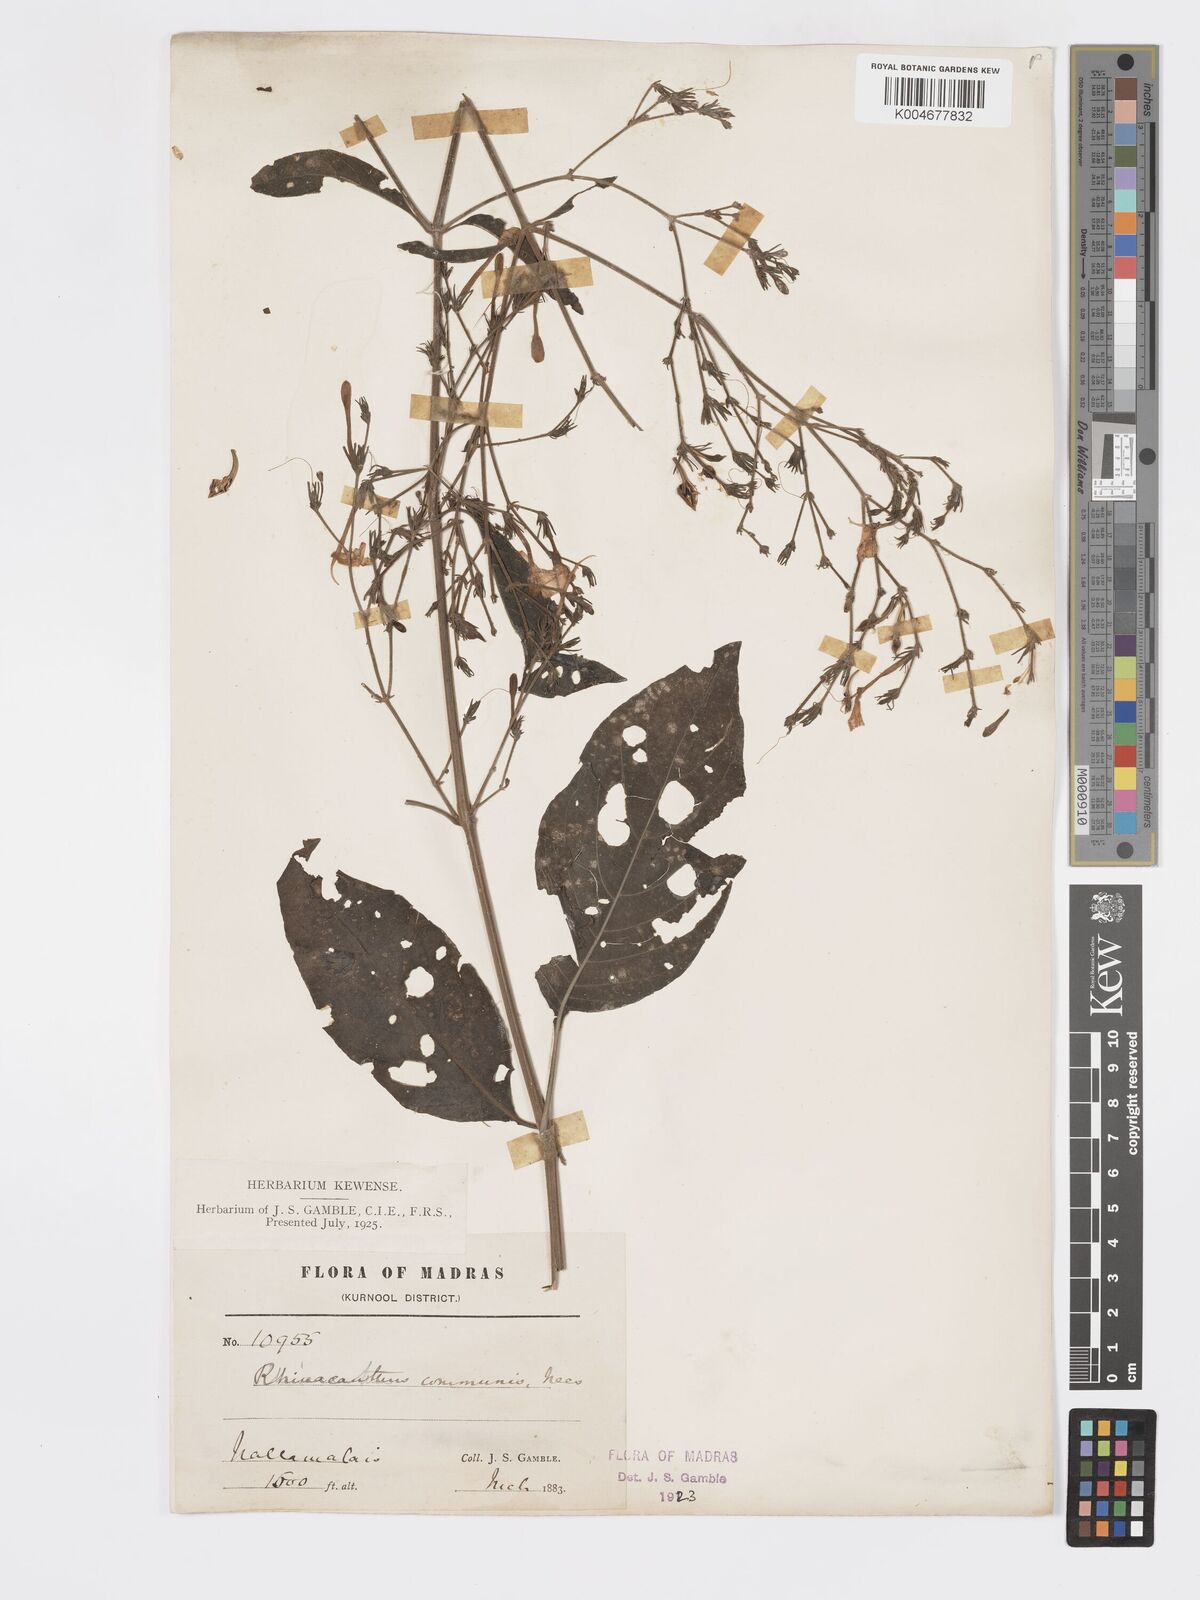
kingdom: Plantae
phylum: Tracheophyta
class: Magnoliopsida
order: Lamiales
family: Acanthaceae
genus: Rhinacanthus
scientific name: Rhinacanthus nasutus
